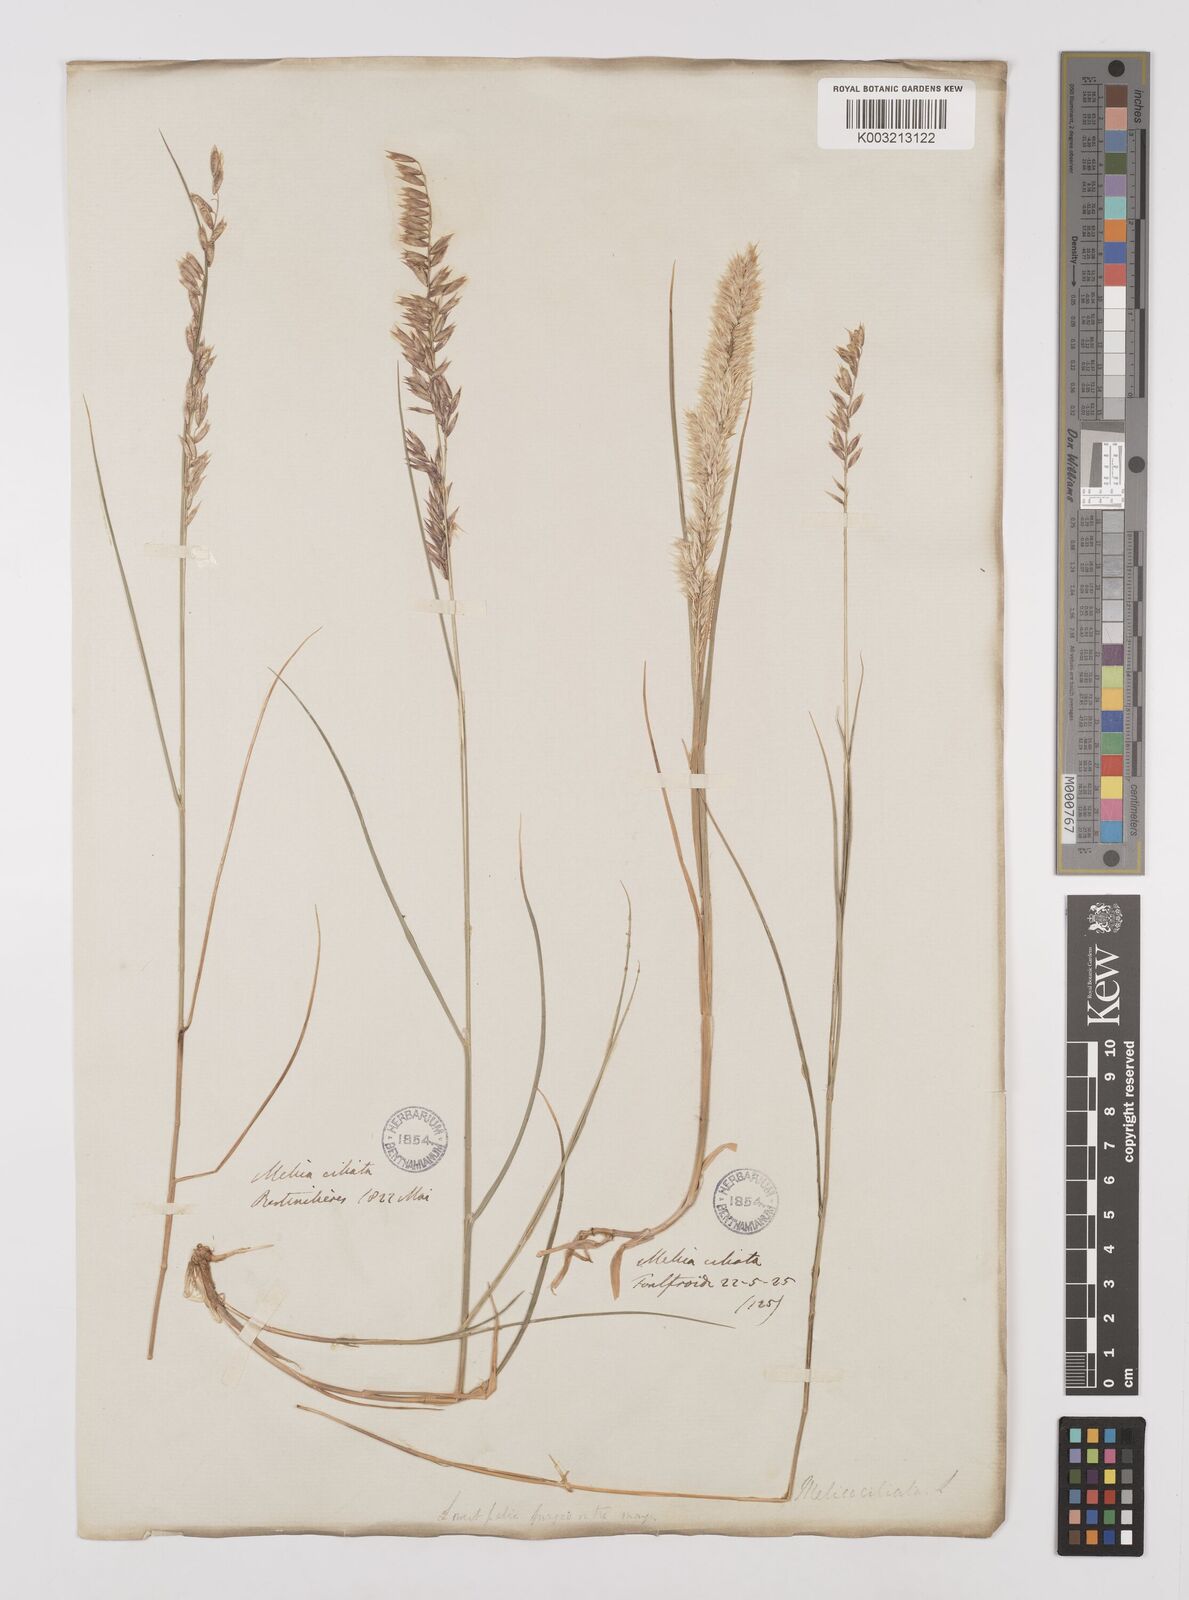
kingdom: Plantae
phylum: Tracheophyta
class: Liliopsida
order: Poales
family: Poaceae
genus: Melica
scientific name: Melica ciliata
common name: Hairy melicgrass
